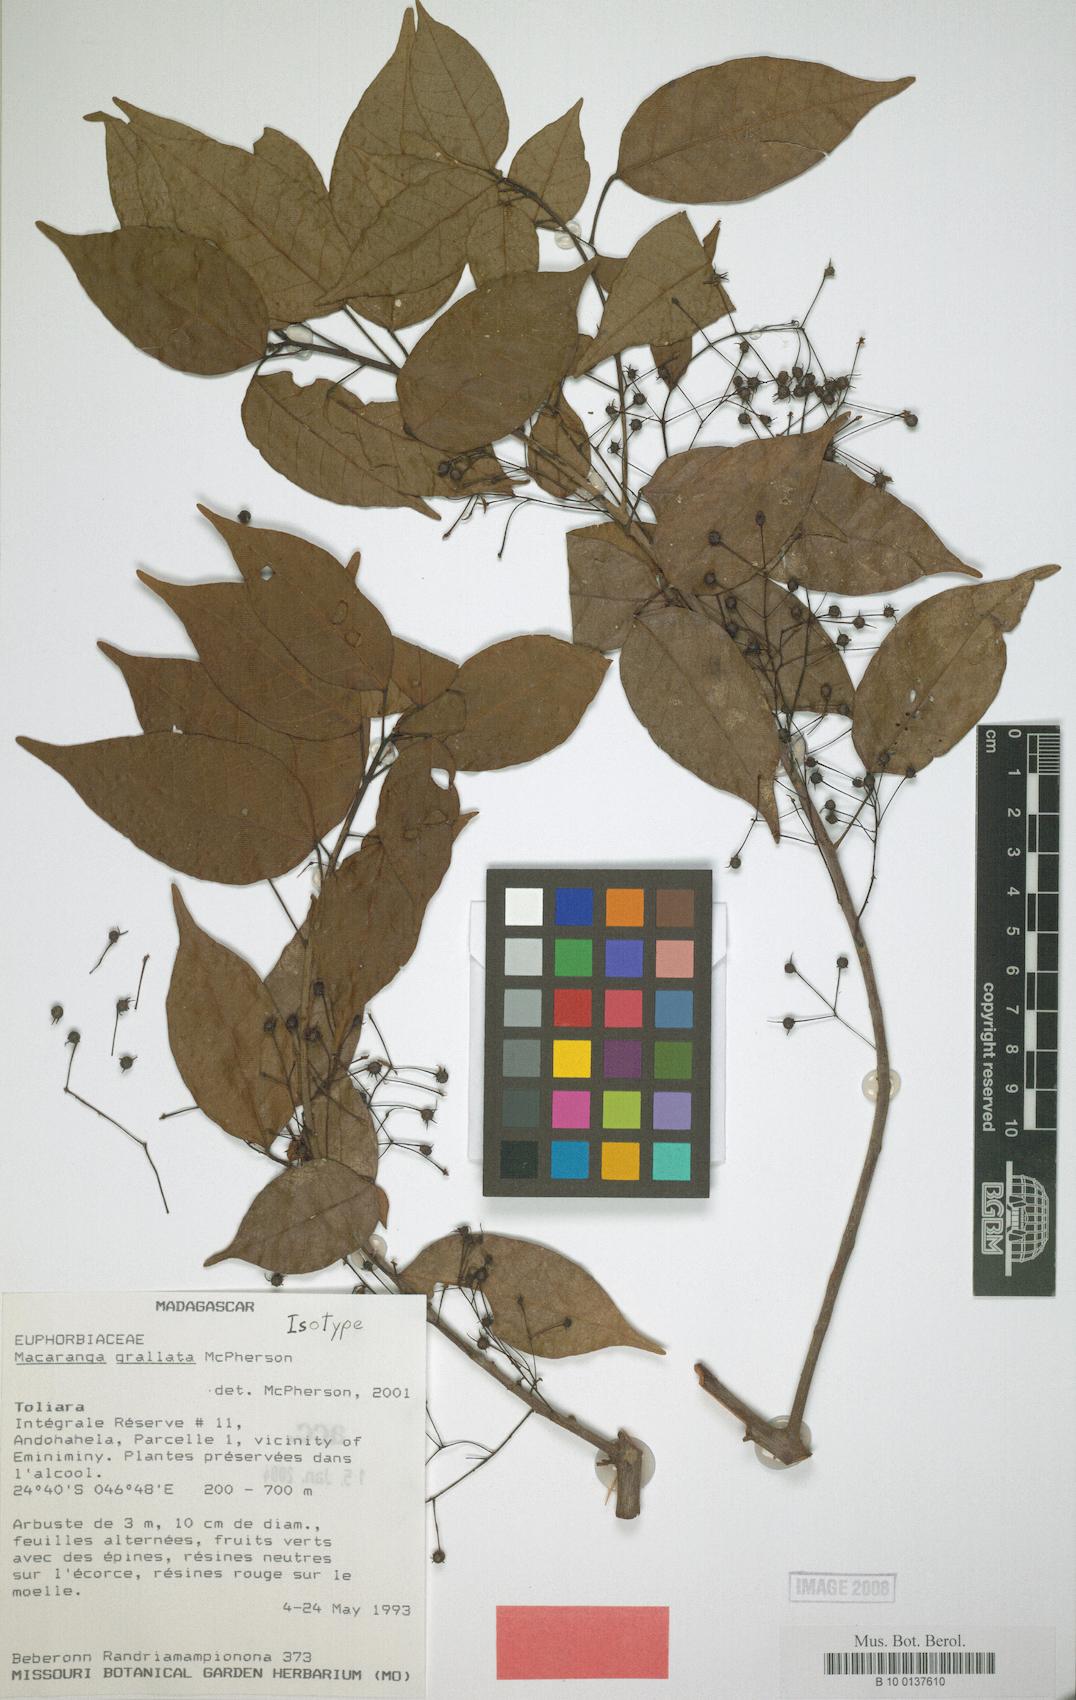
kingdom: Plantae
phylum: Tracheophyta
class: Magnoliopsida
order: Malpighiales
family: Euphorbiaceae
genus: Macaranga
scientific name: Macaranga grallata
